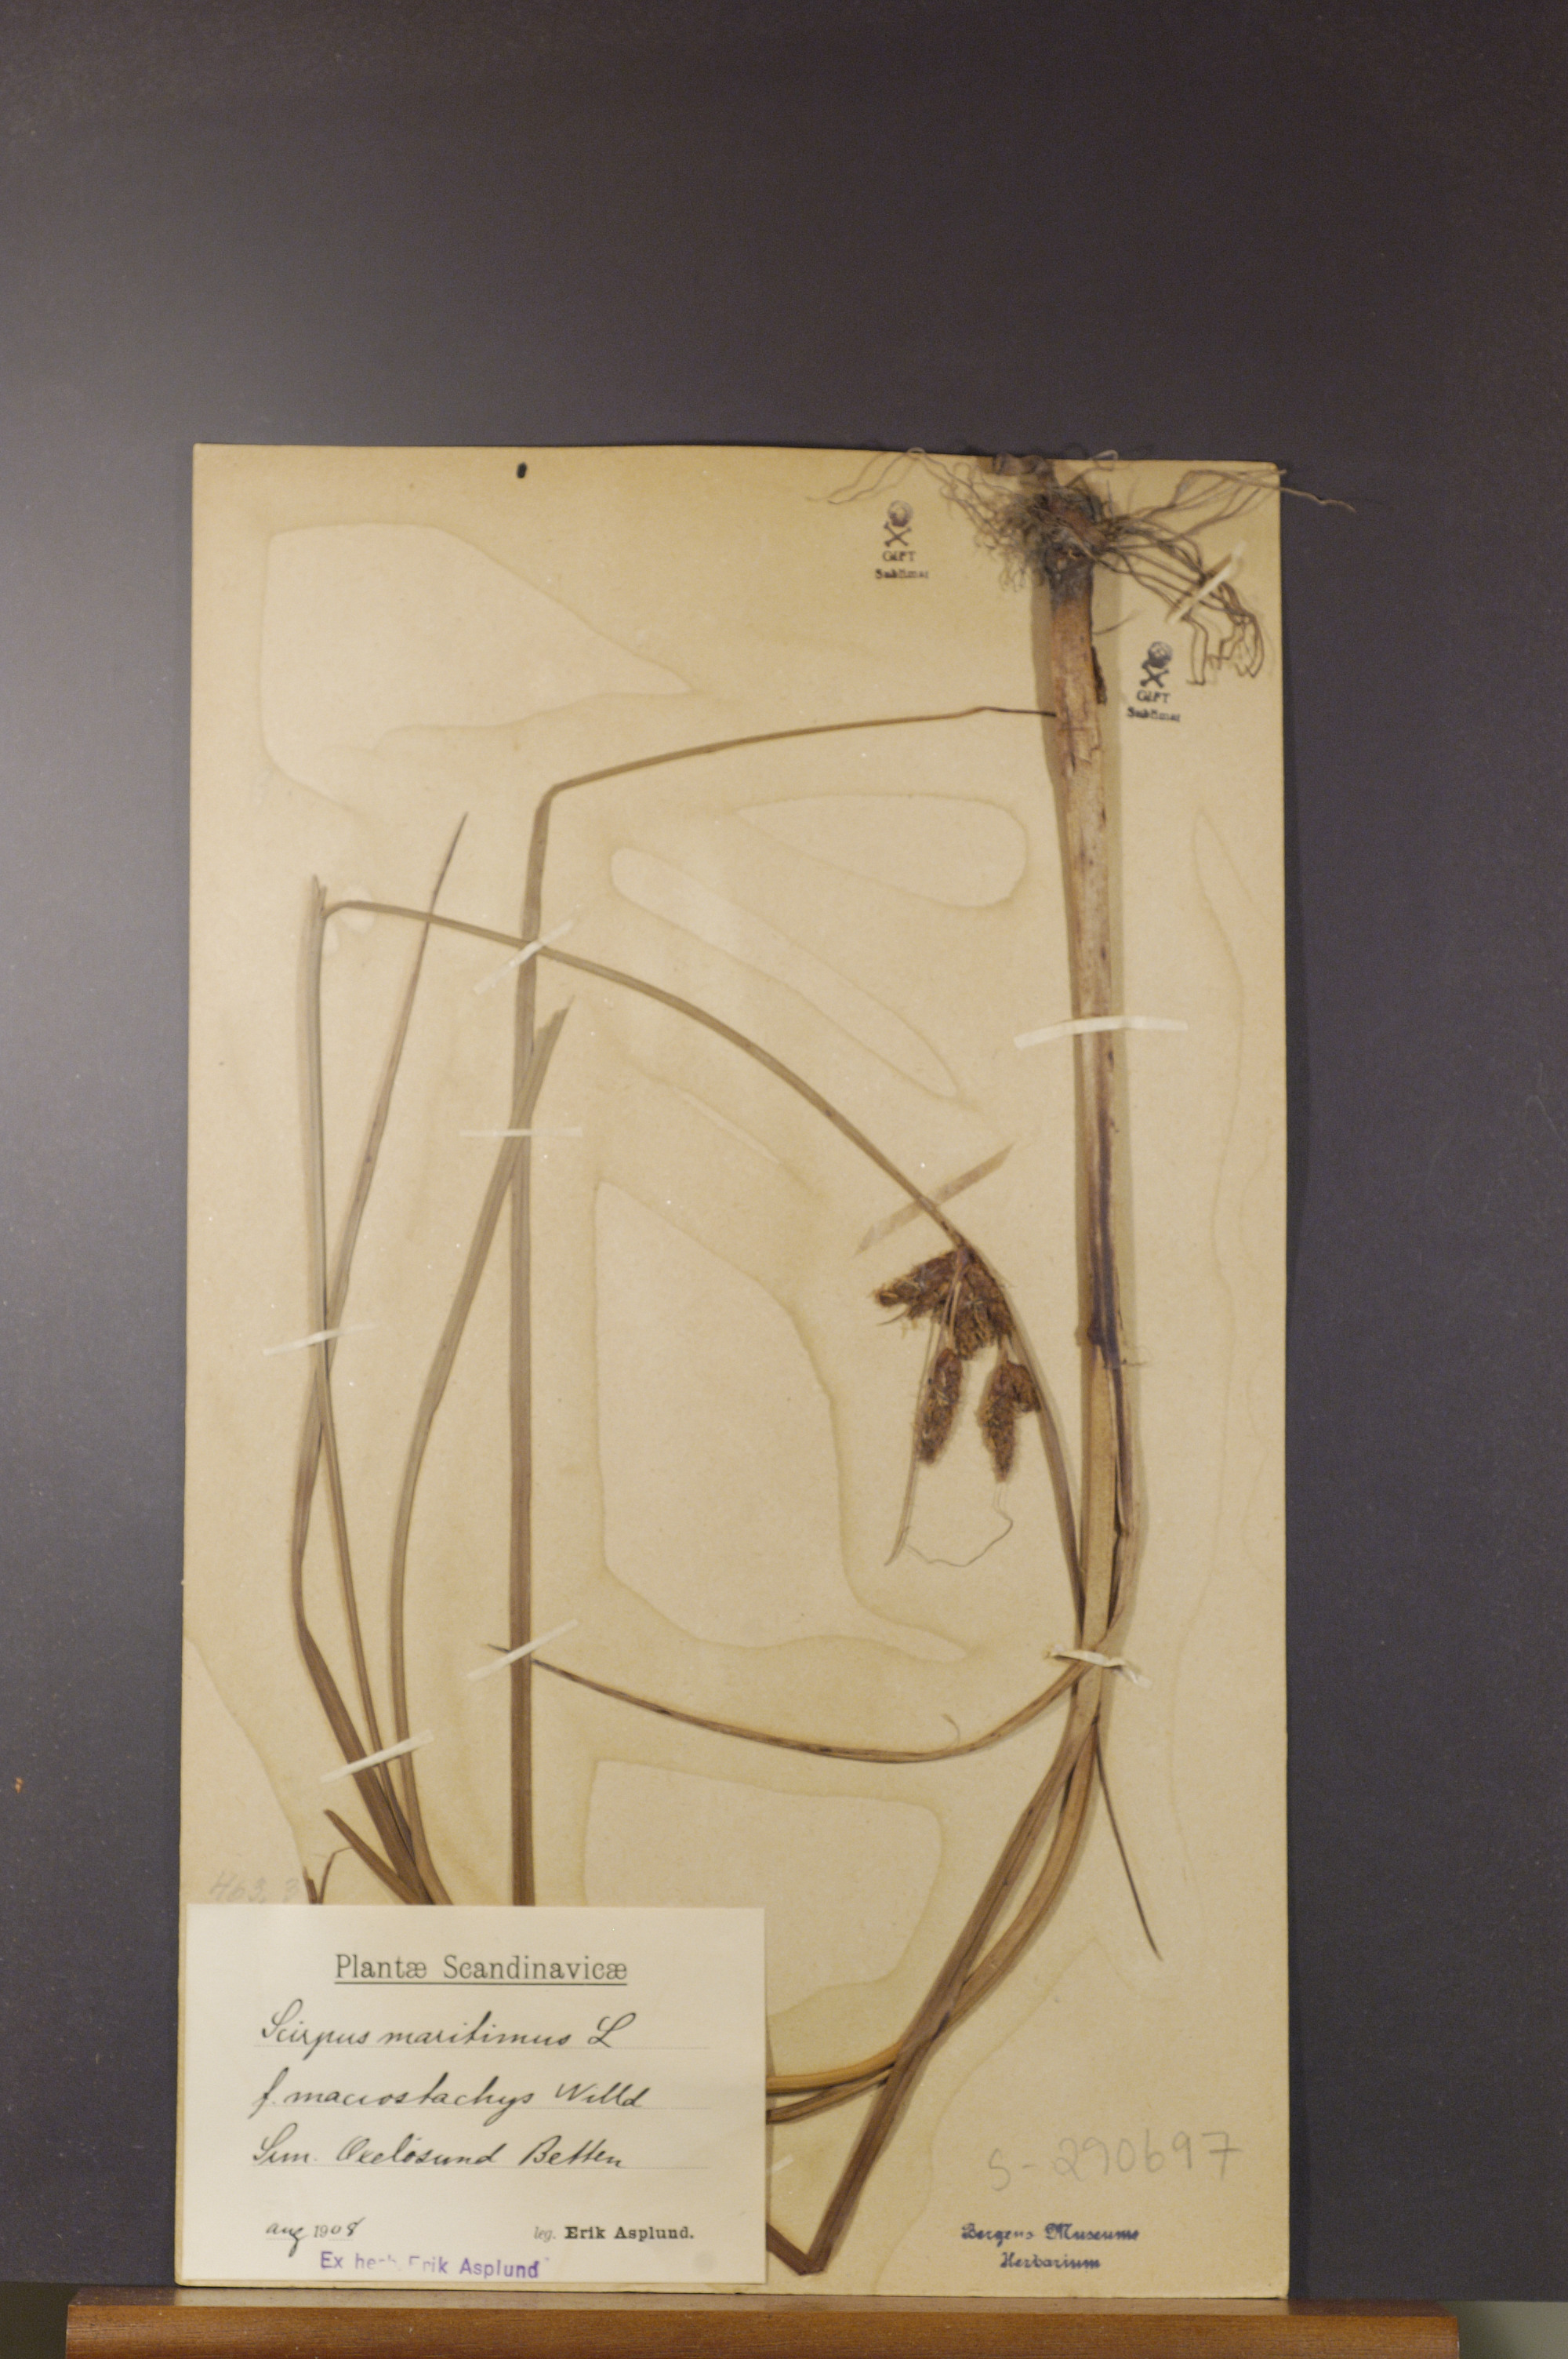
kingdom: Plantae
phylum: Tracheophyta
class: Liliopsida
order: Poales
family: Cyperaceae
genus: Bolboschoenus
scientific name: Bolboschoenus maritimus
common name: Sea club-rush
